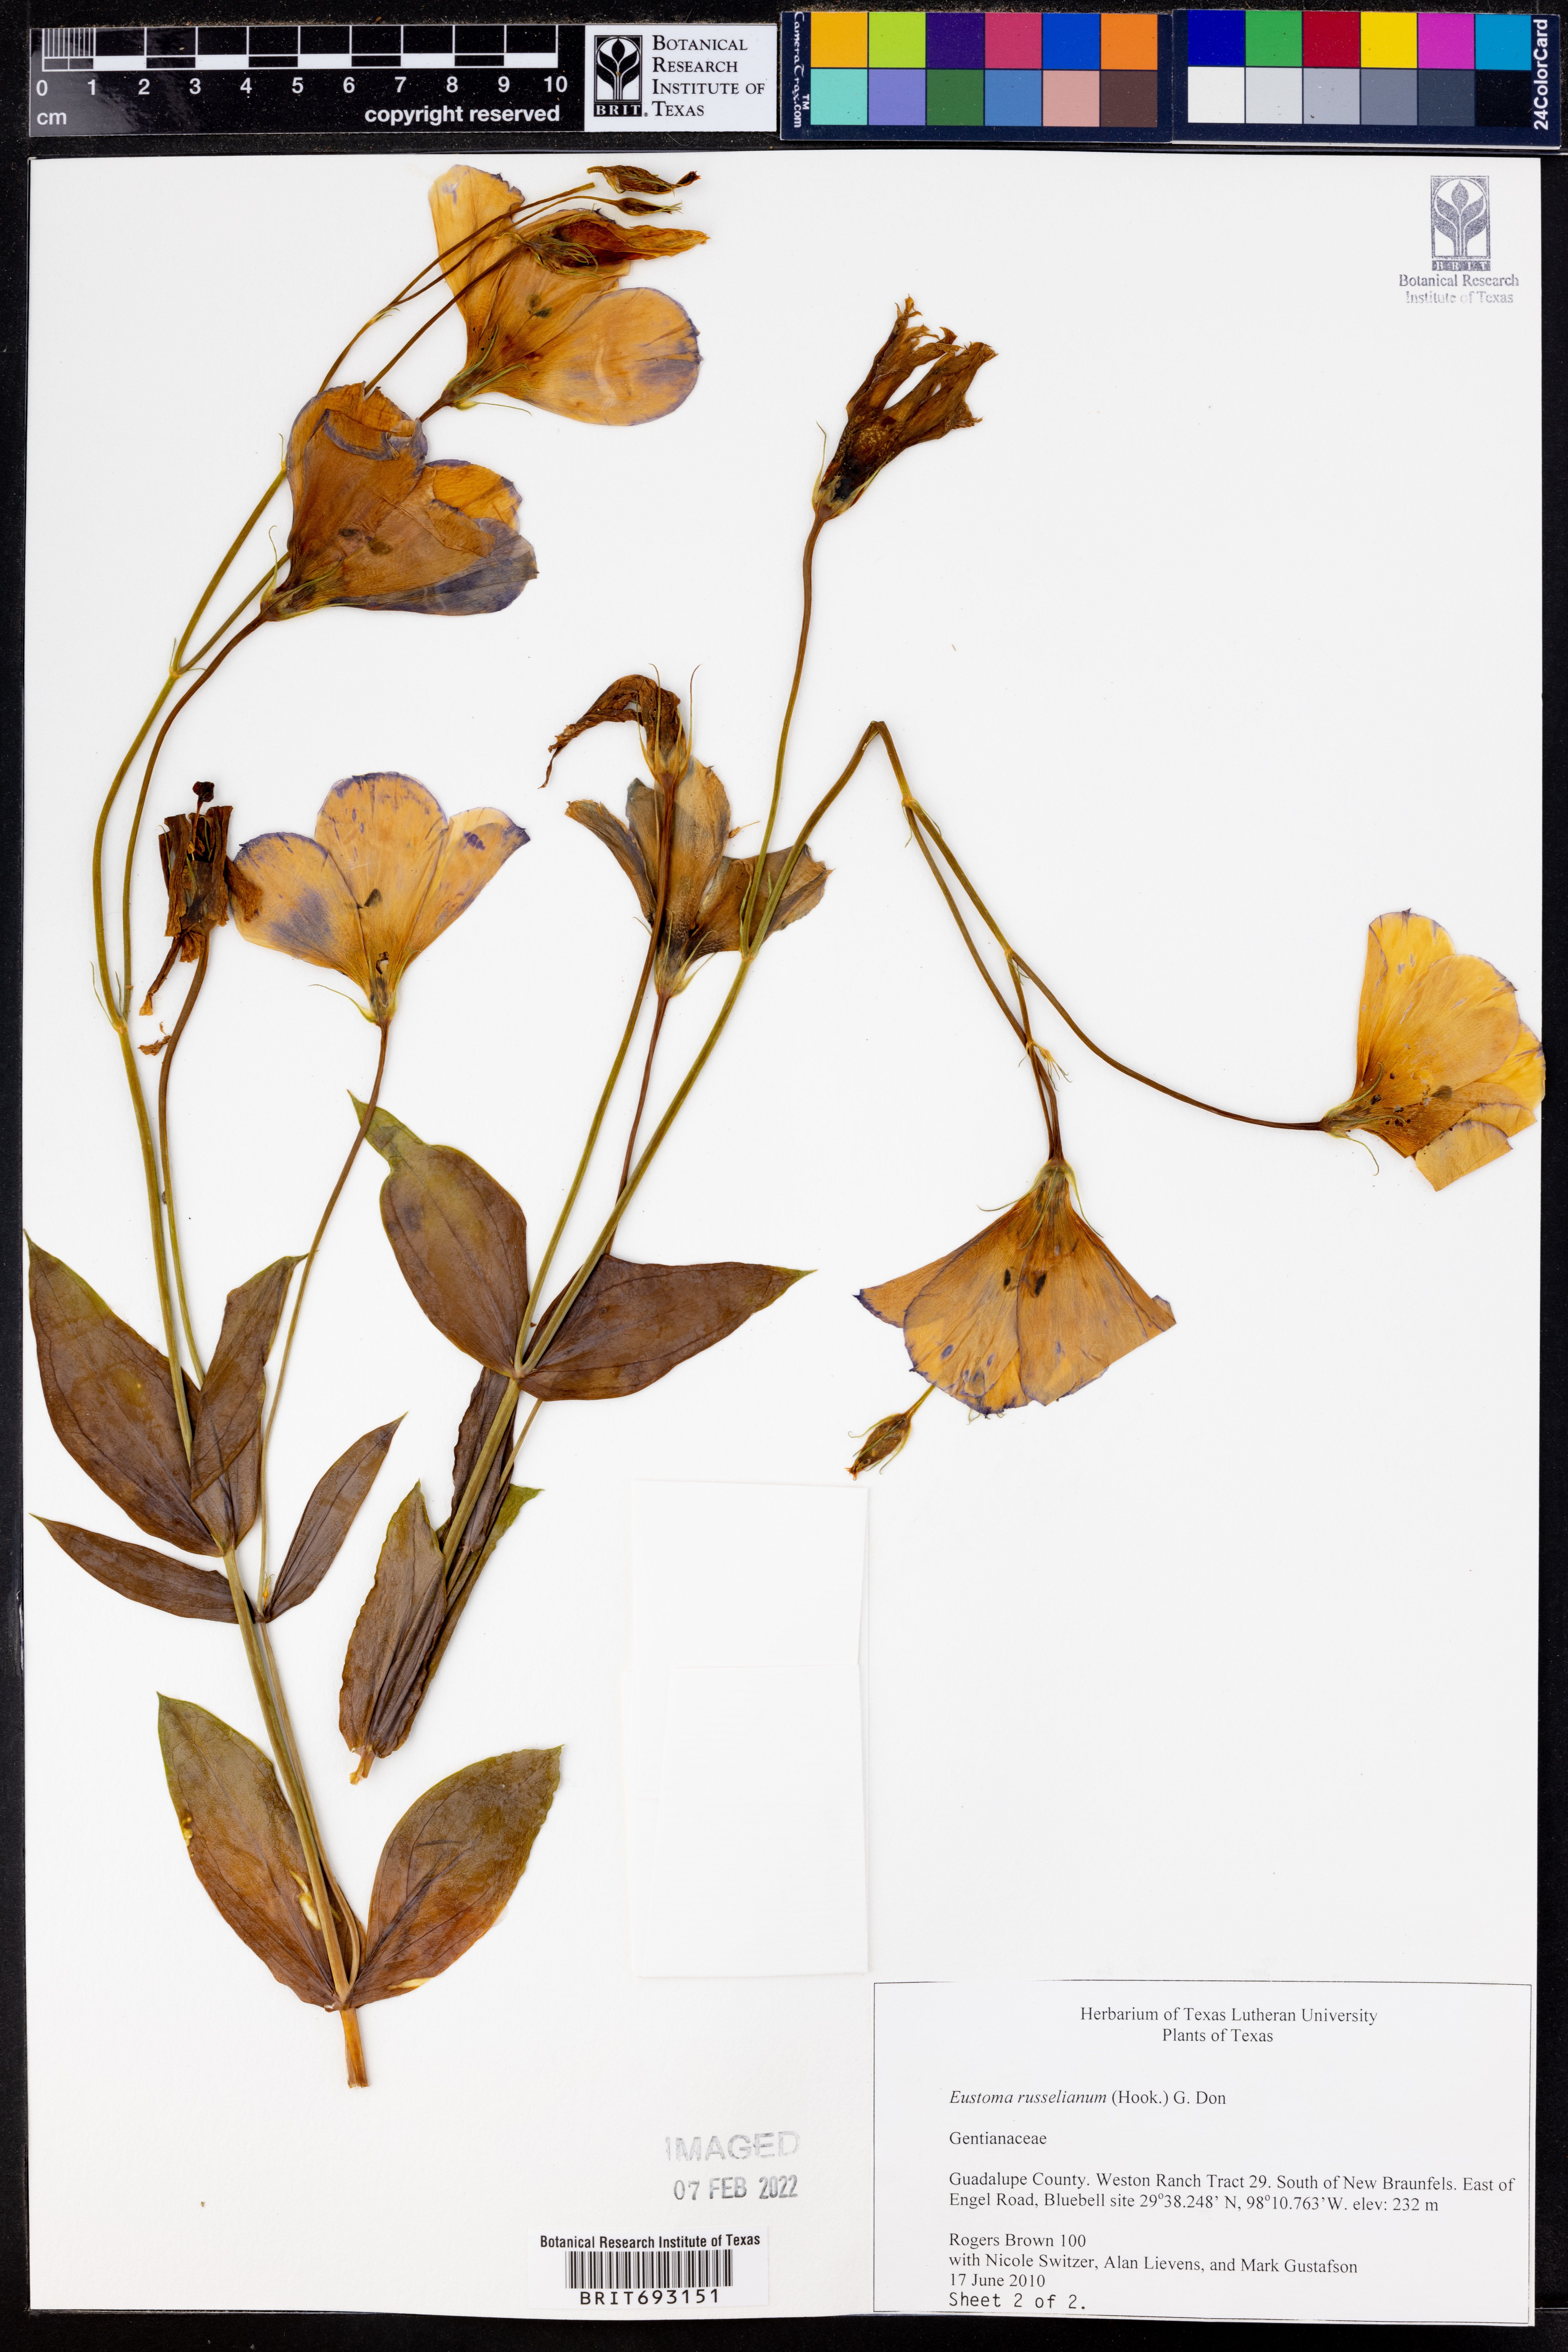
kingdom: Plantae
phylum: Tracheophyta
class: Magnoliopsida
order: Gentianales
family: Gentianaceae
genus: Eustoma
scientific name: Eustoma russellianum
